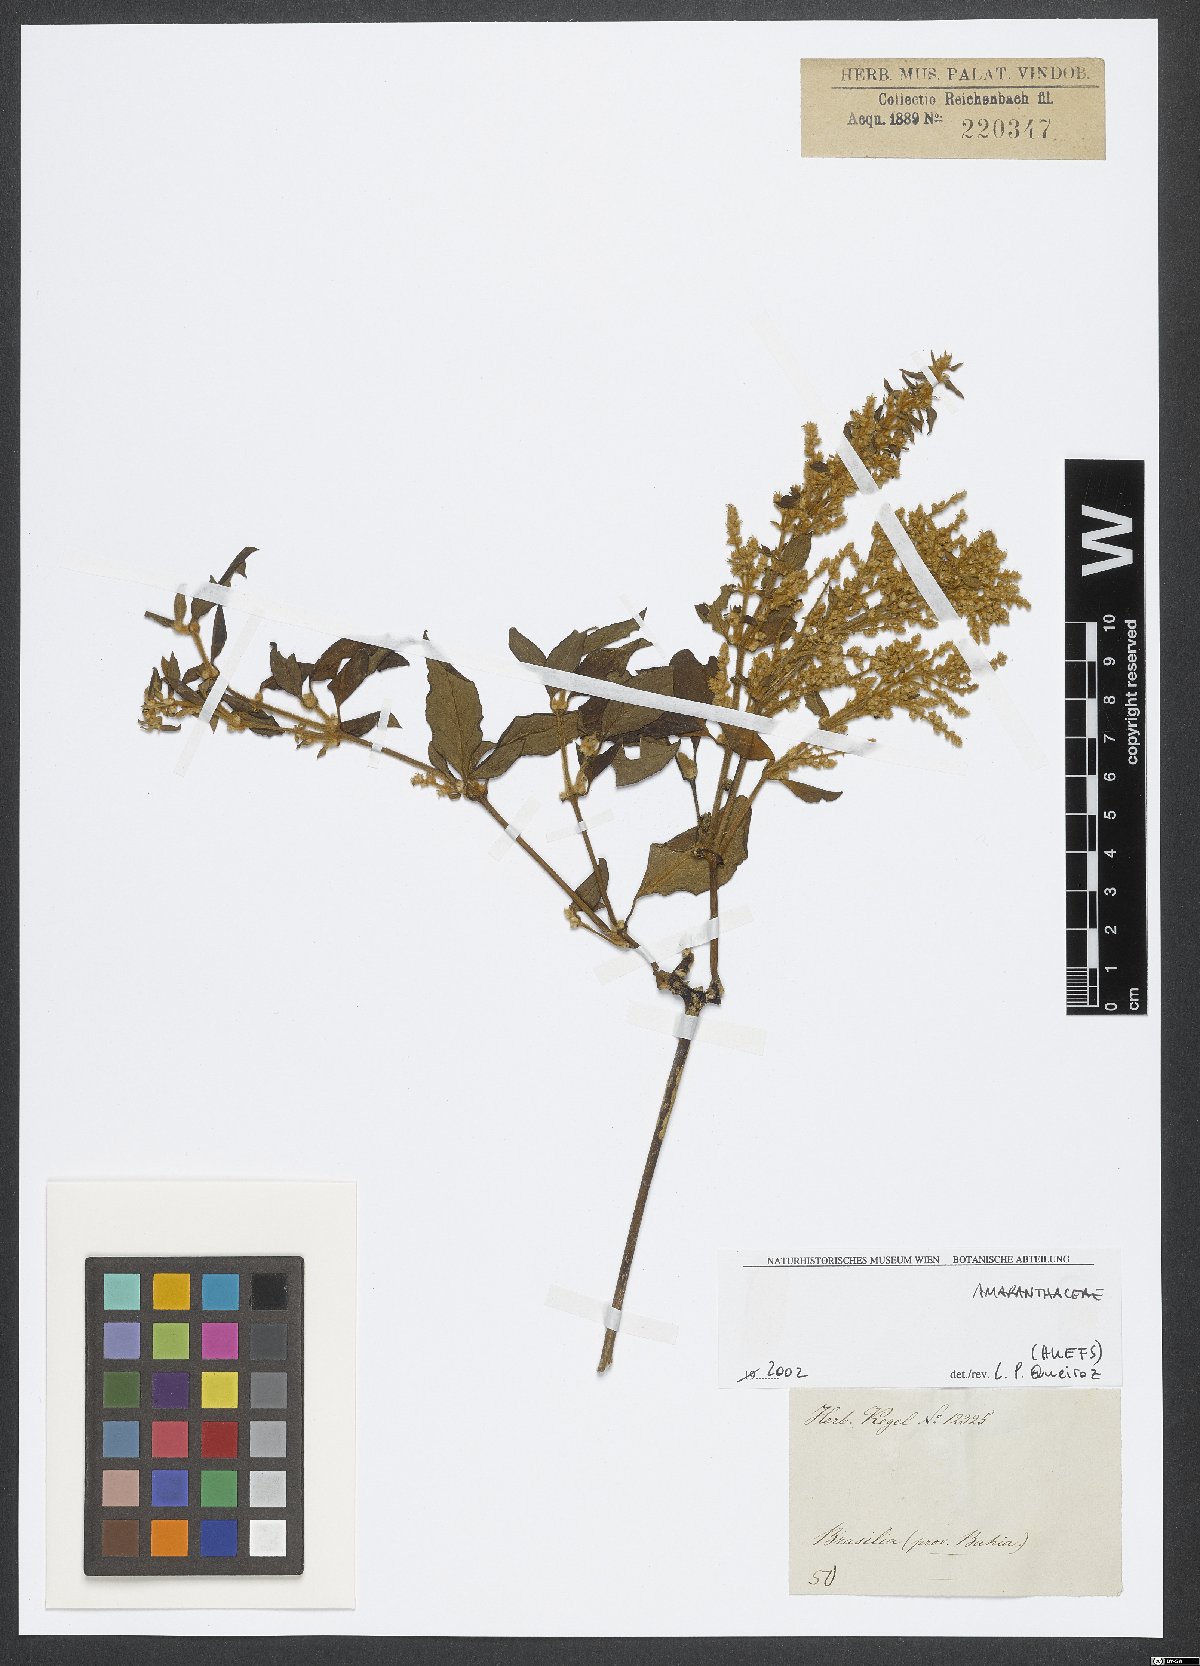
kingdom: Plantae
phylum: Tracheophyta
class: Magnoliopsida
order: Caryophyllales
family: Amaranthaceae
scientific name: Amaranthaceae
